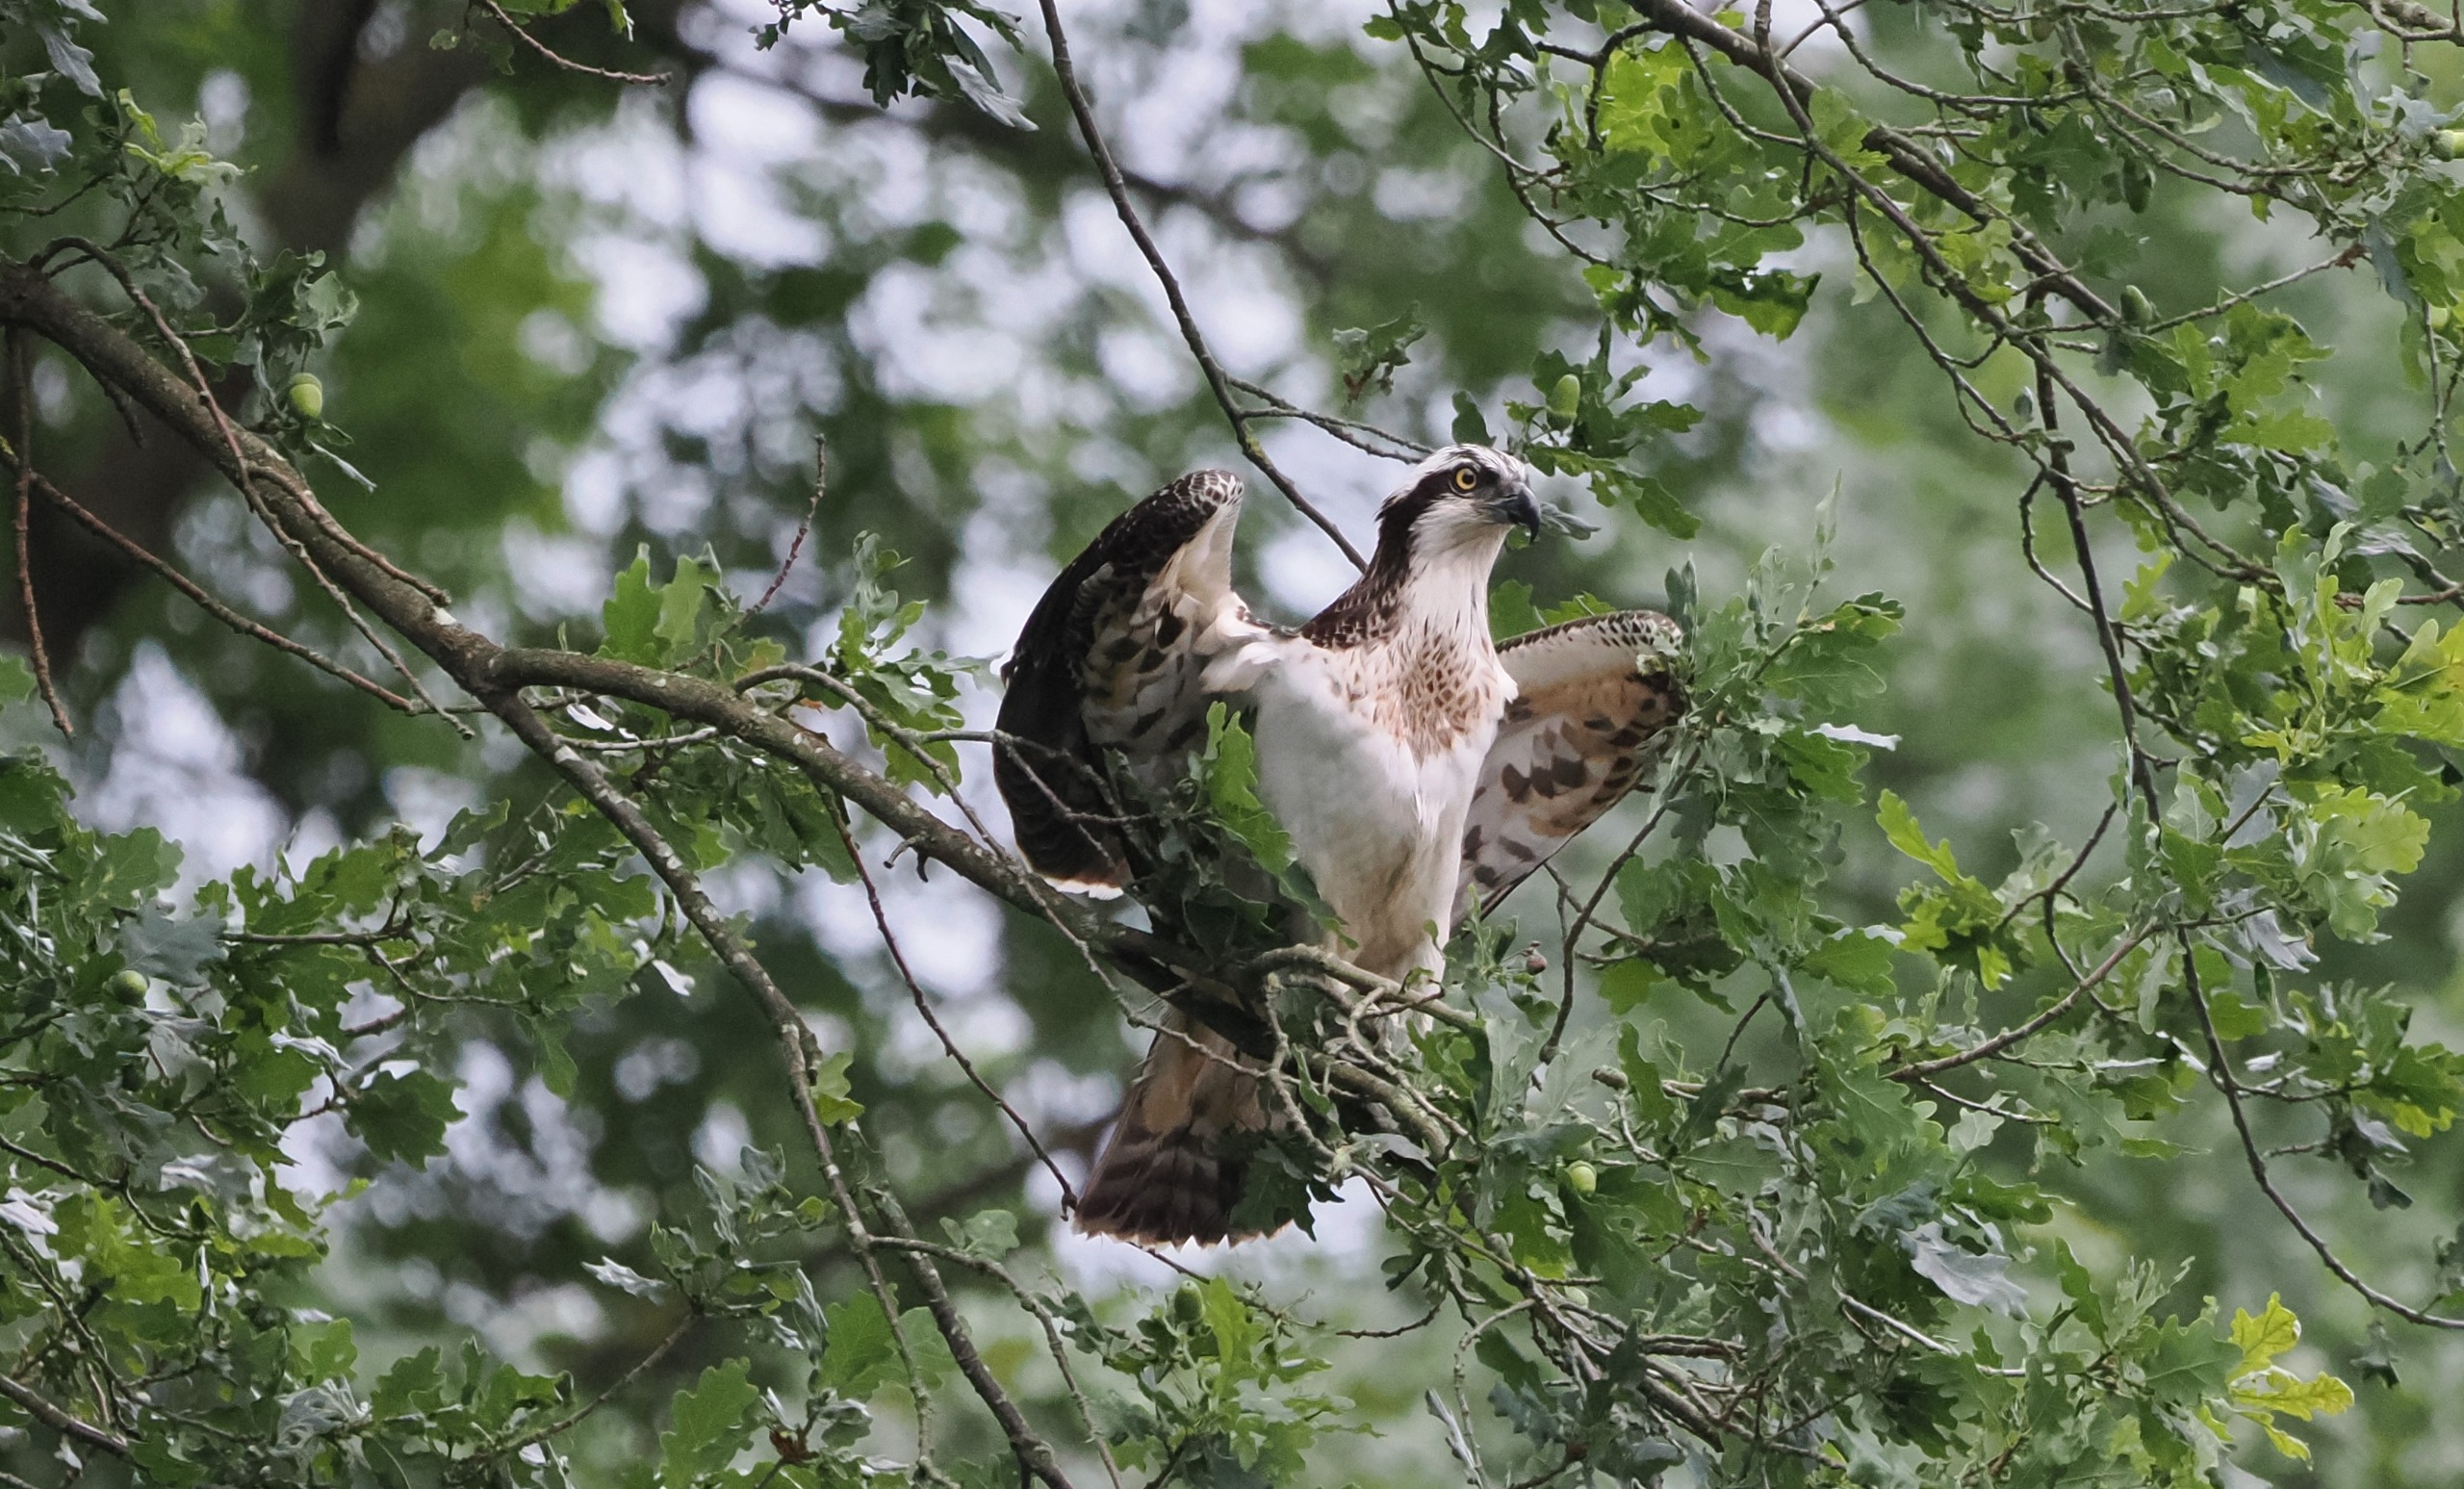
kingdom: Animalia
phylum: Chordata
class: Aves
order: Accipitriformes
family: Pandionidae
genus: Pandion
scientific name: Pandion haliaetus
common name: Fiskeørn
